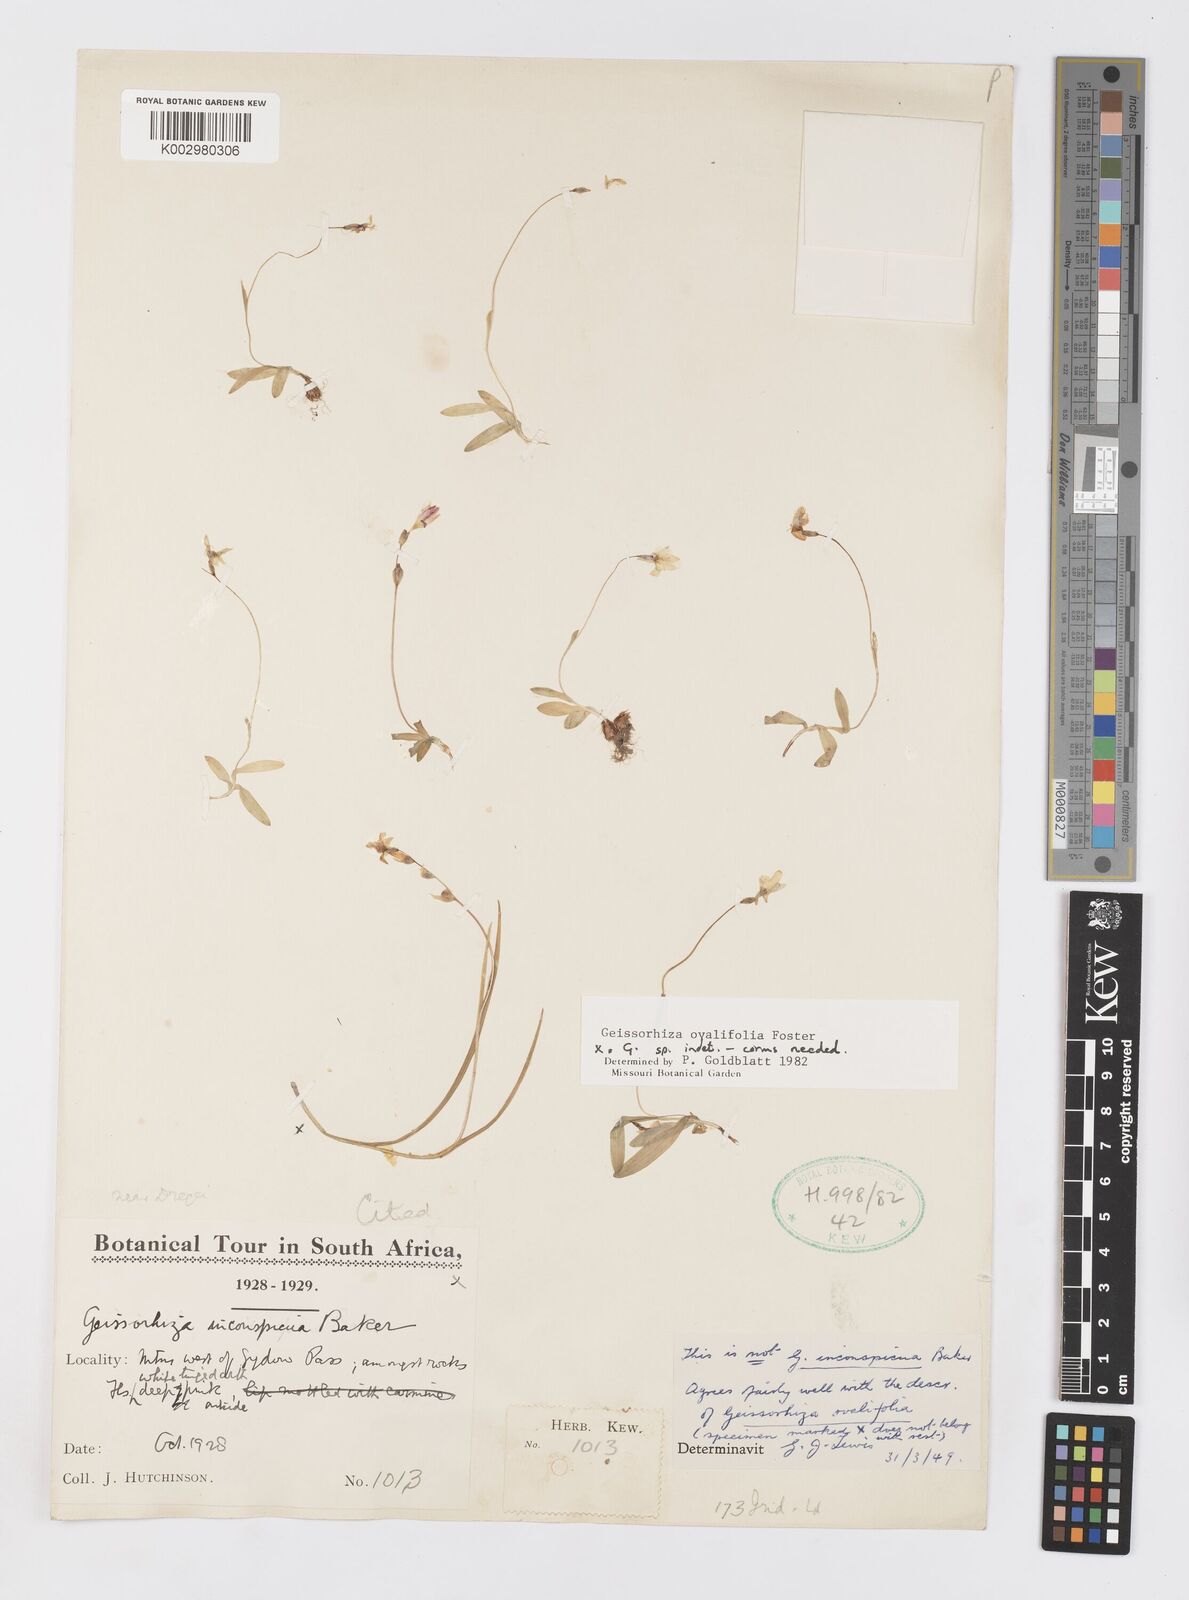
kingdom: Plantae
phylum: Tracheophyta
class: Liliopsida
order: Asparagales
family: Iridaceae
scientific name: Iridaceae
